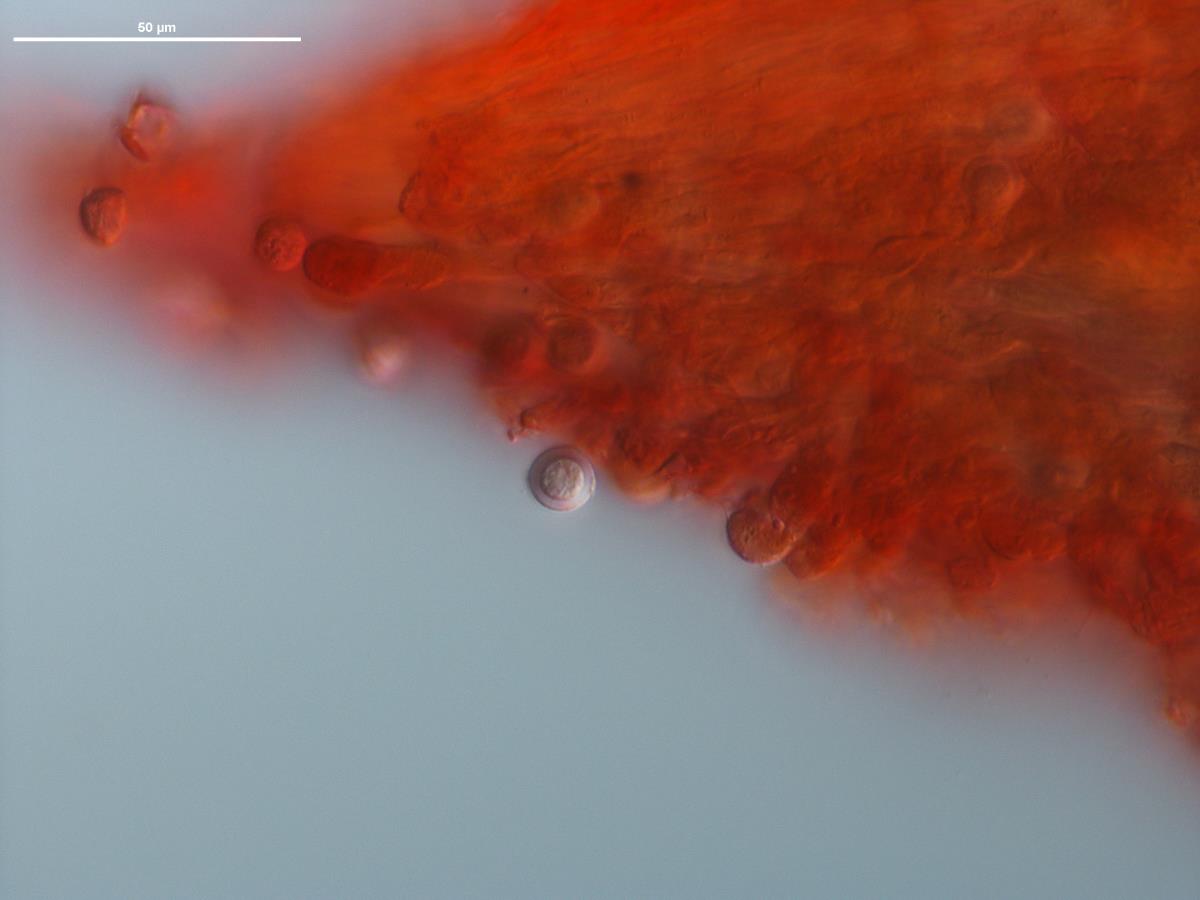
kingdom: Fungi
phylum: Basidiomycota
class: Agaricomycetes
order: Agaricales
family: Pterulaceae
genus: Deflexula
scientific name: Deflexula
